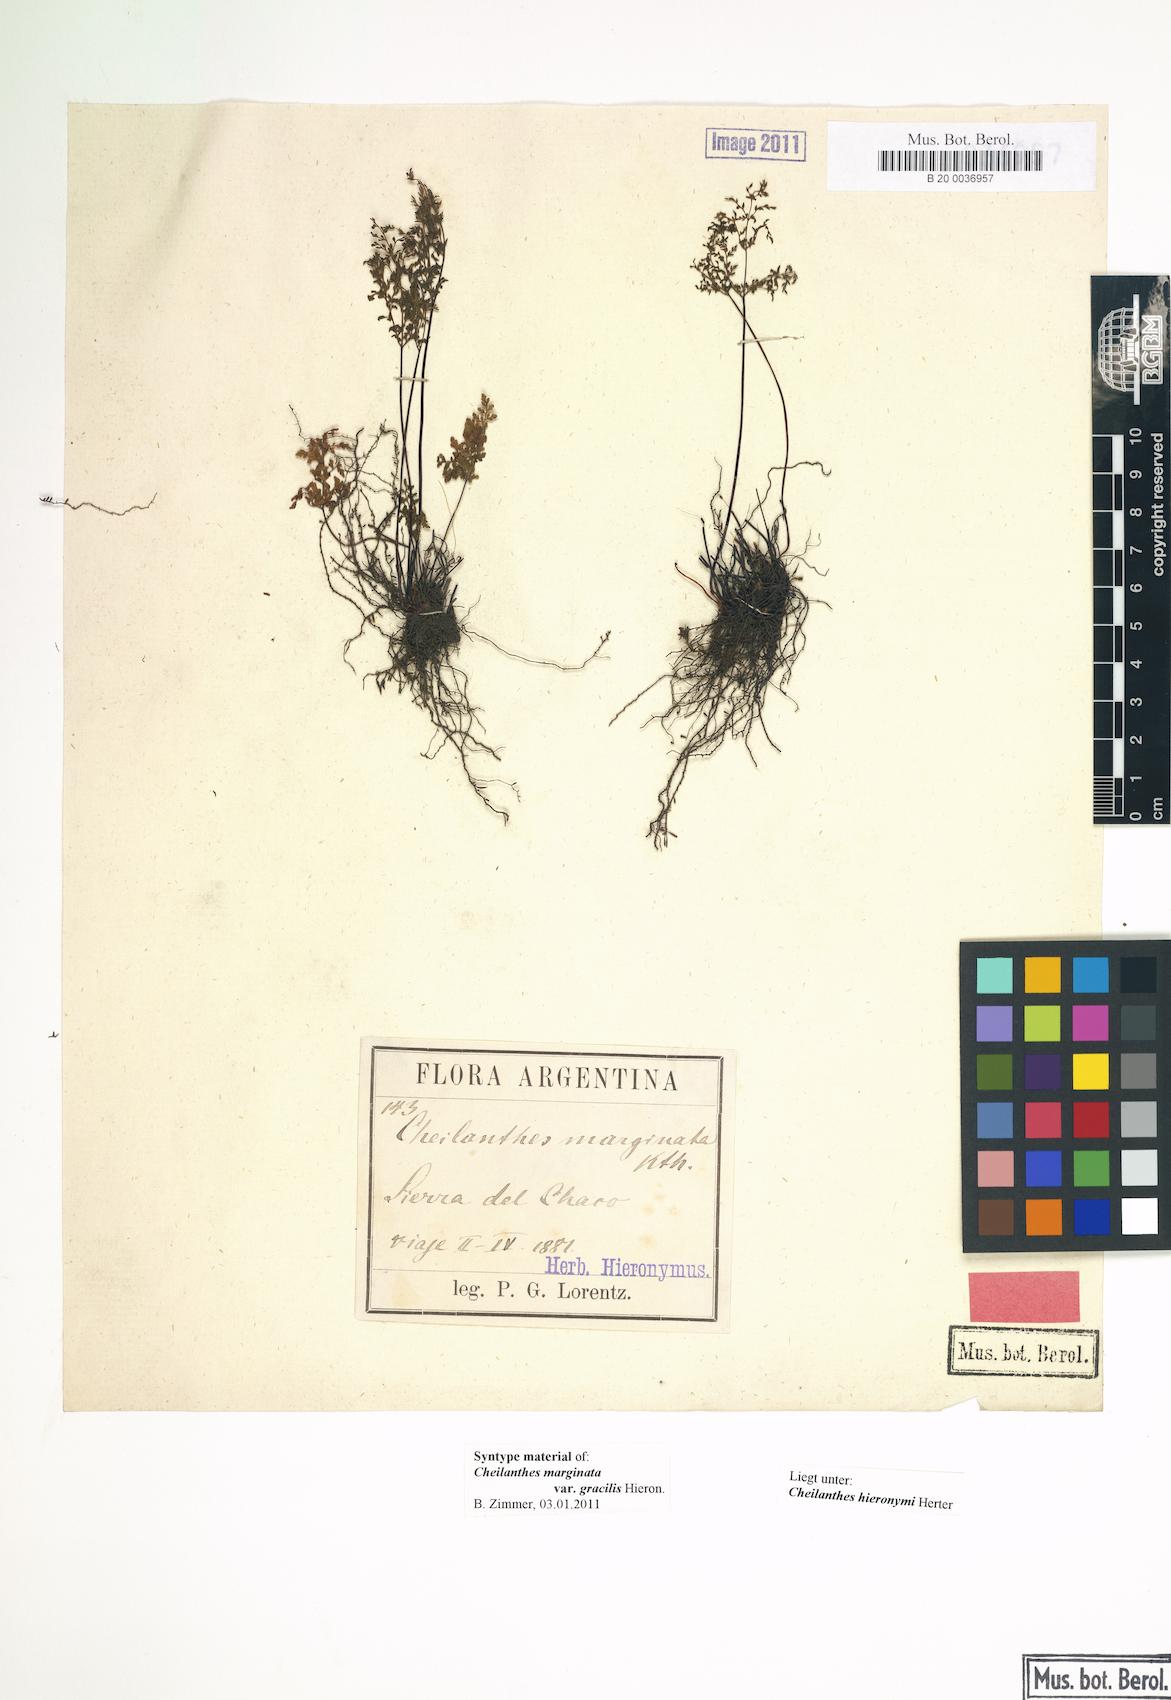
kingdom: Plantae
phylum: Tracheophyta
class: Polypodiopsida
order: Polypodiales
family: Pteridaceae
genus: Cheilanthes
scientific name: Cheilanthes hieronymi
